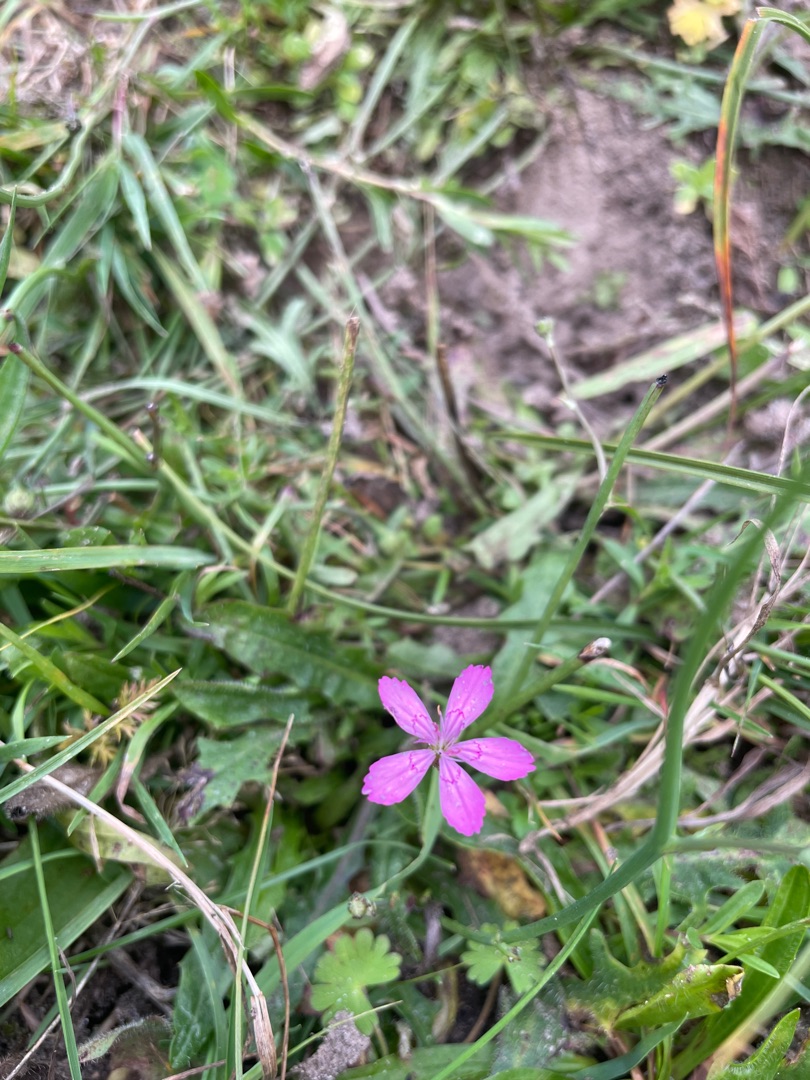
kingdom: Plantae
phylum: Tracheophyta
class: Magnoliopsida
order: Caryophyllales
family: Caryophyllaceae
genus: Dianthus
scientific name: Dianthus deltoides
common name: Bakke-nellike
